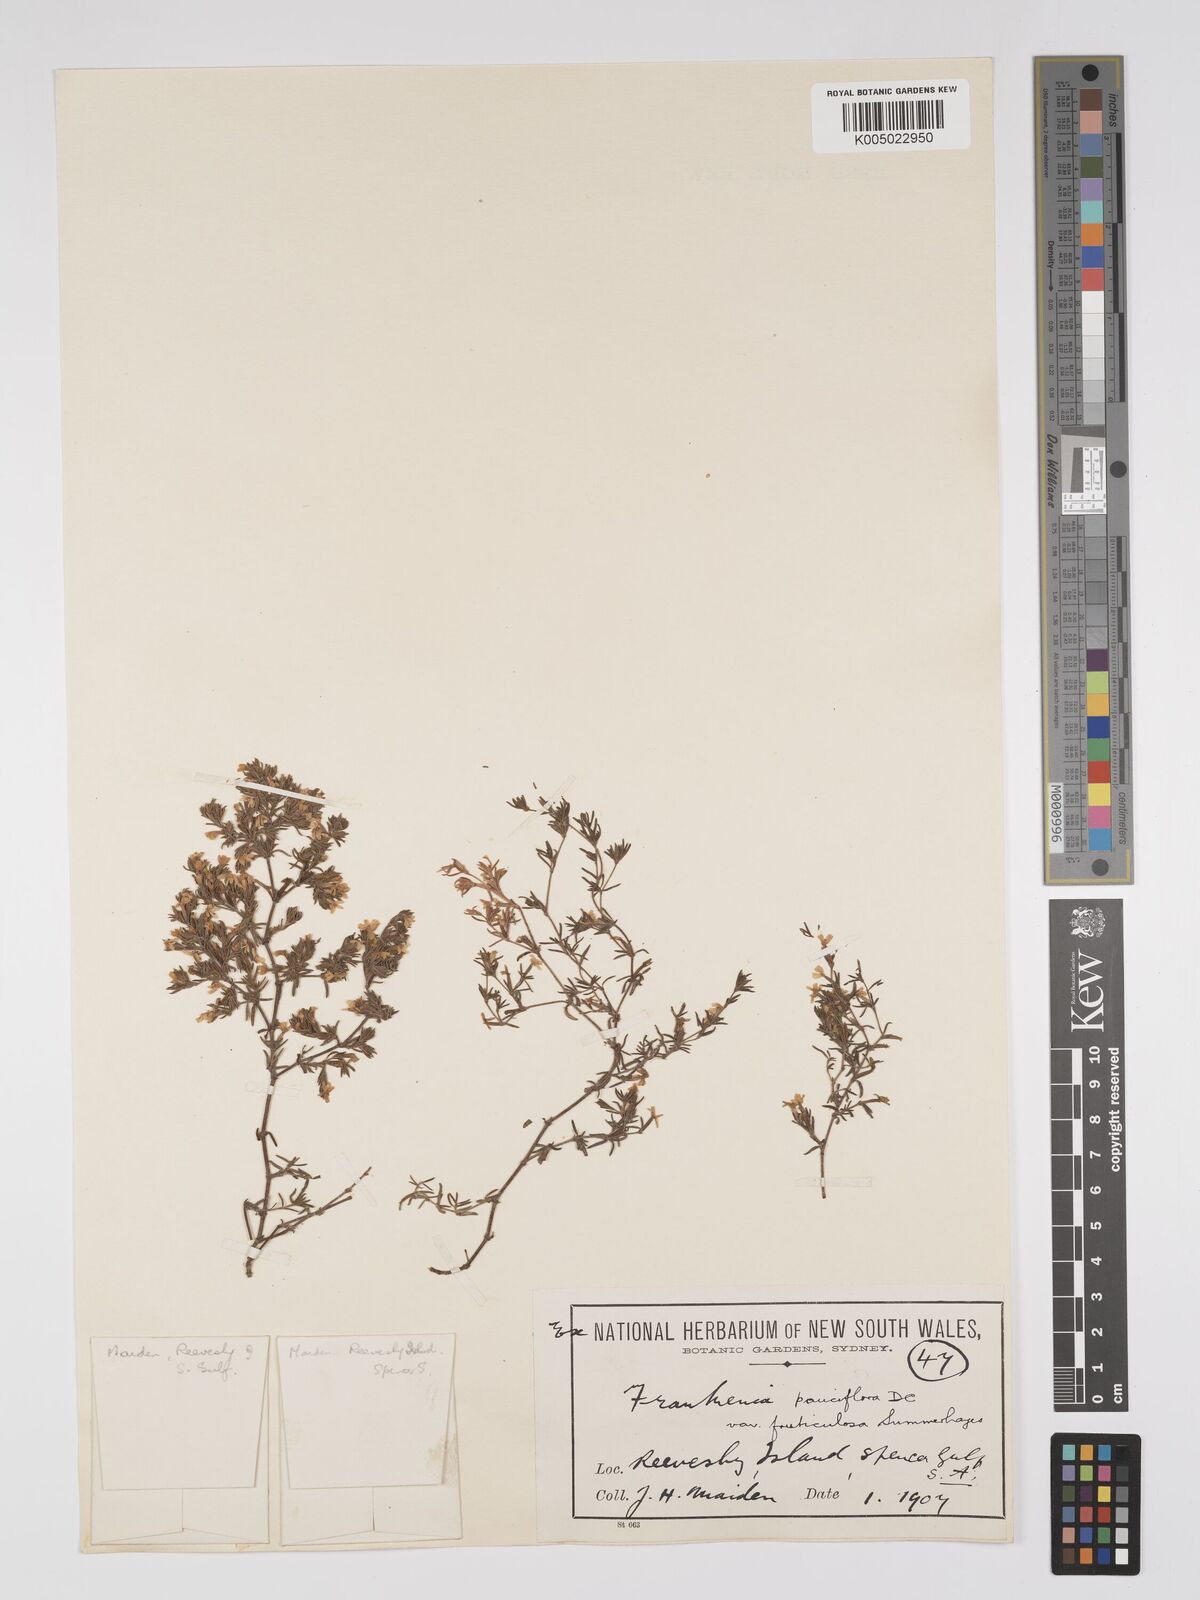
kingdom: Plantae
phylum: Tracheophyta
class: Magnoliopsida
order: Caryophyllales
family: Frankeniaceae
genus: Frankenia
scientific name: Frankenia pauciflora
